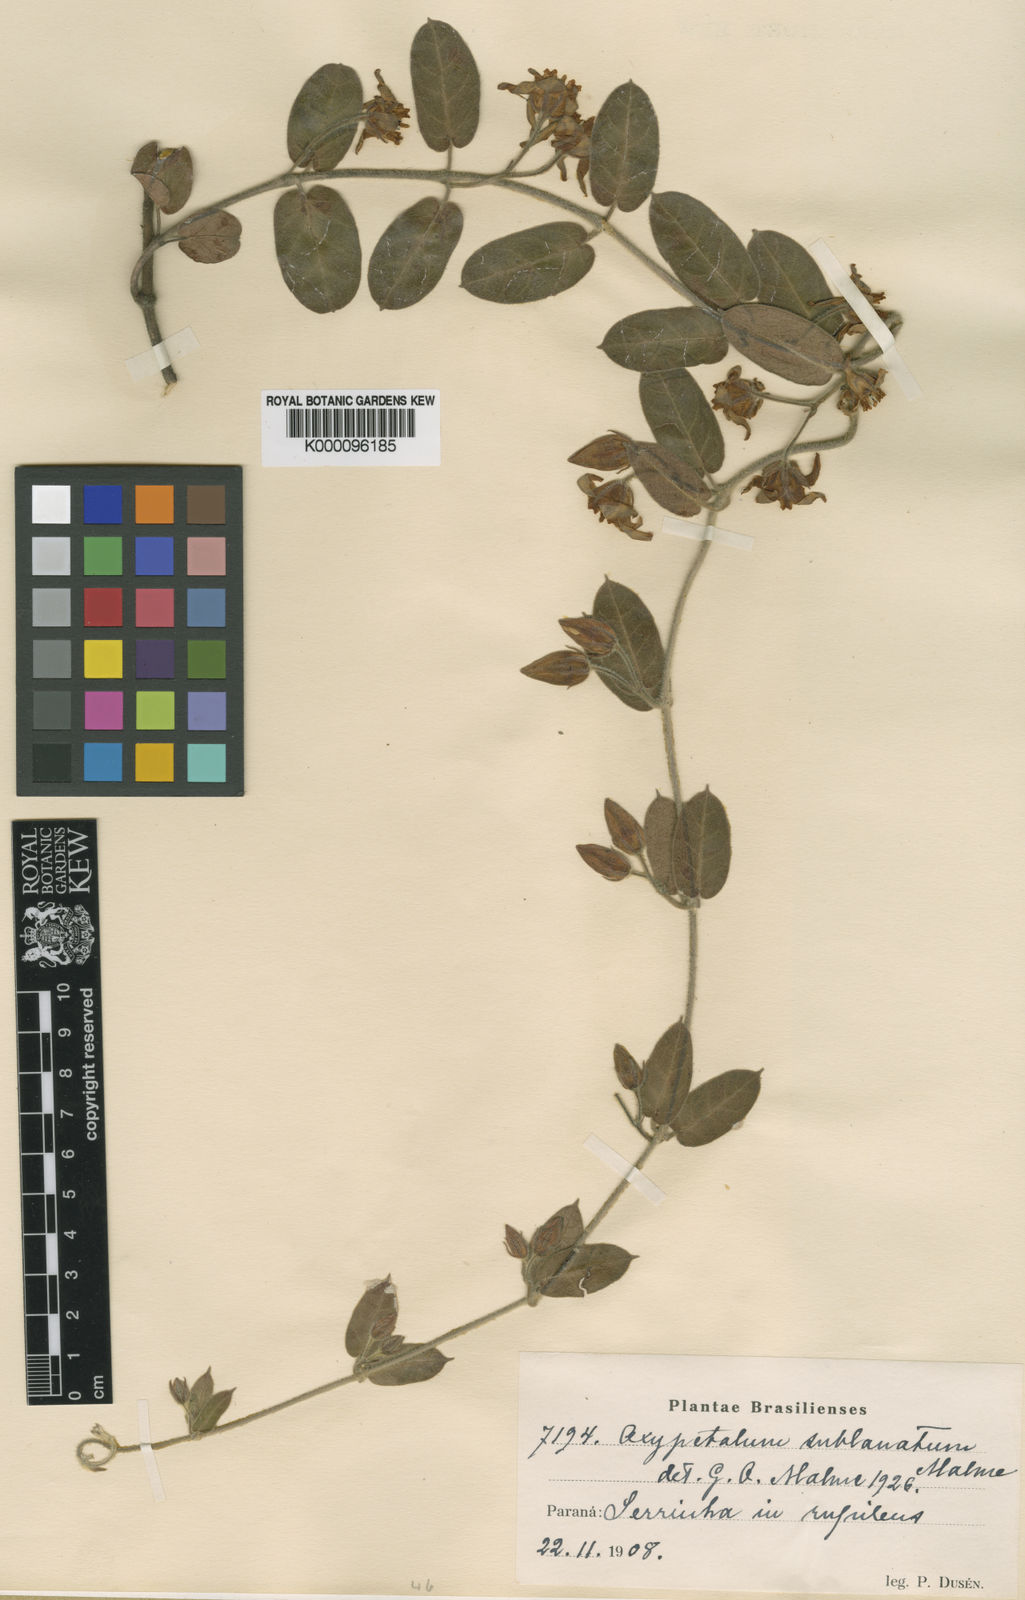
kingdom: Plantae
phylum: Tracheophyta
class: Magnoliopsida
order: Gentianales
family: Apocynaceae
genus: Oxypetalum
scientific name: Oxypetalum sublanatum
